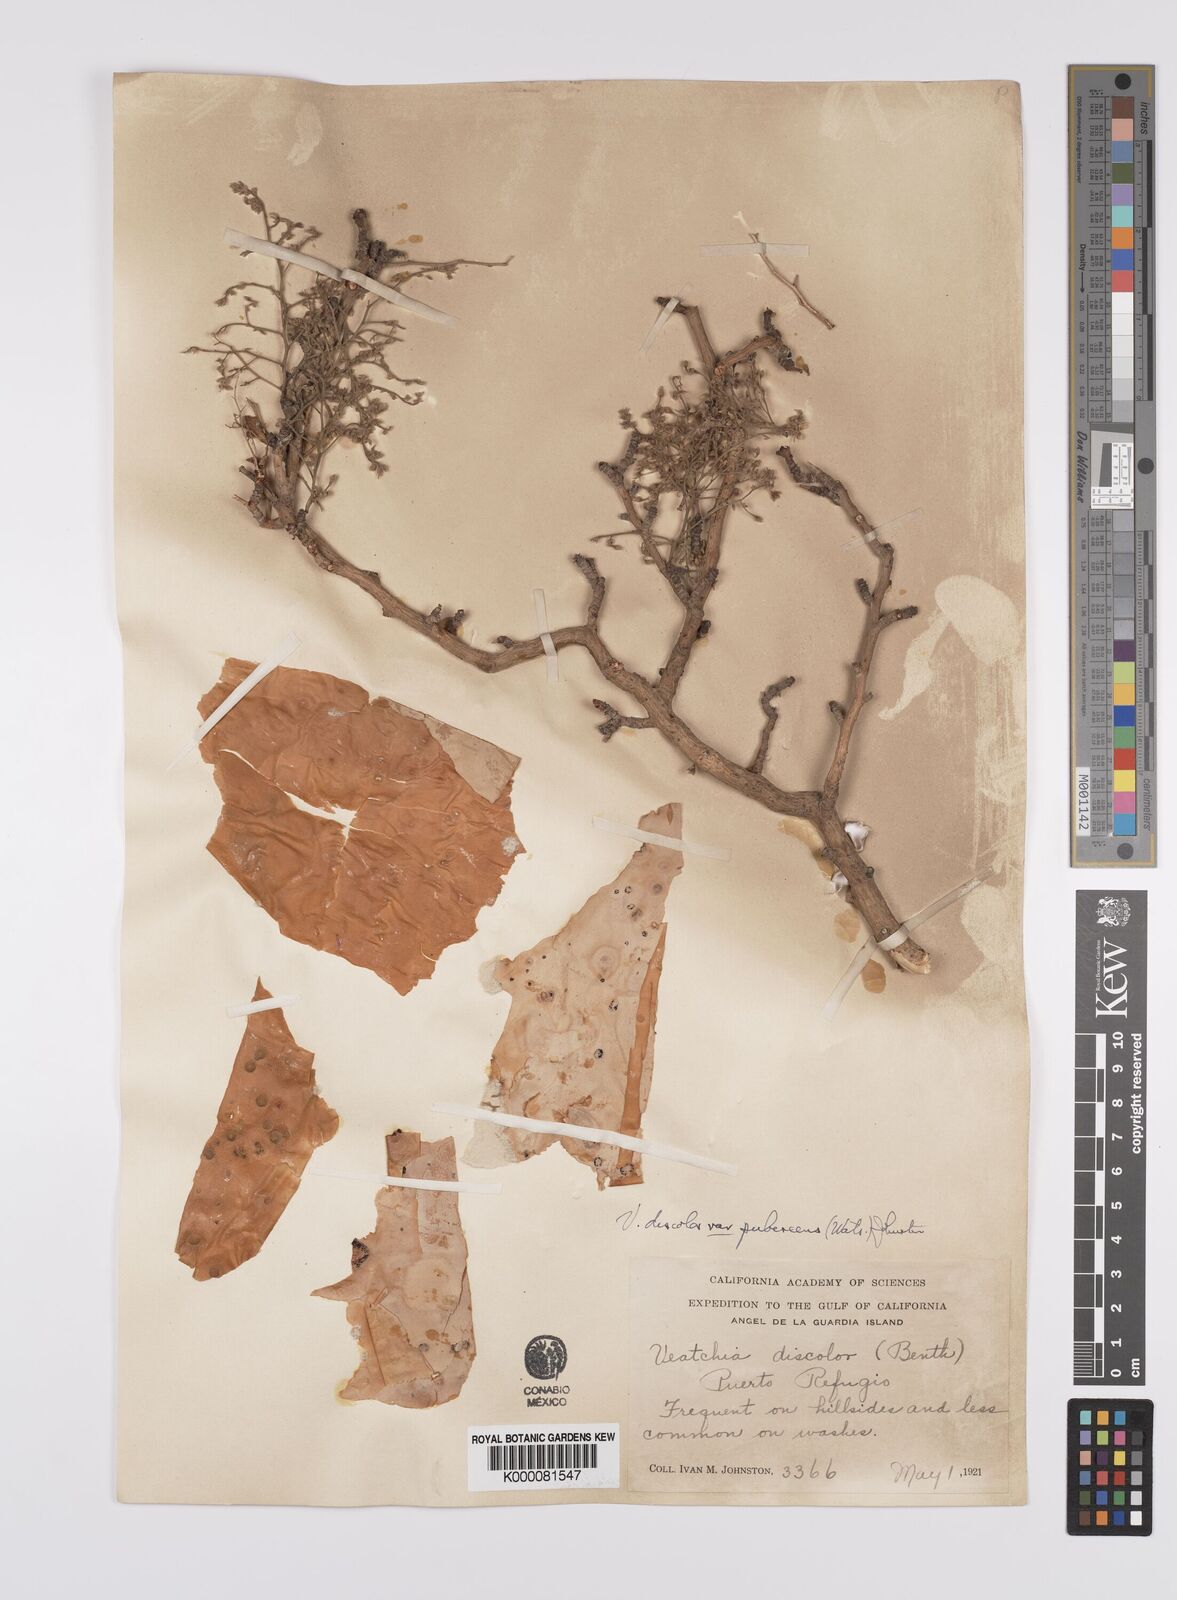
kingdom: Plantae
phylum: Tracheophyta
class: Magnoliopsida
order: Sapindales
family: Anacardiaceae
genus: Pachycormus
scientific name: Pachycormus
